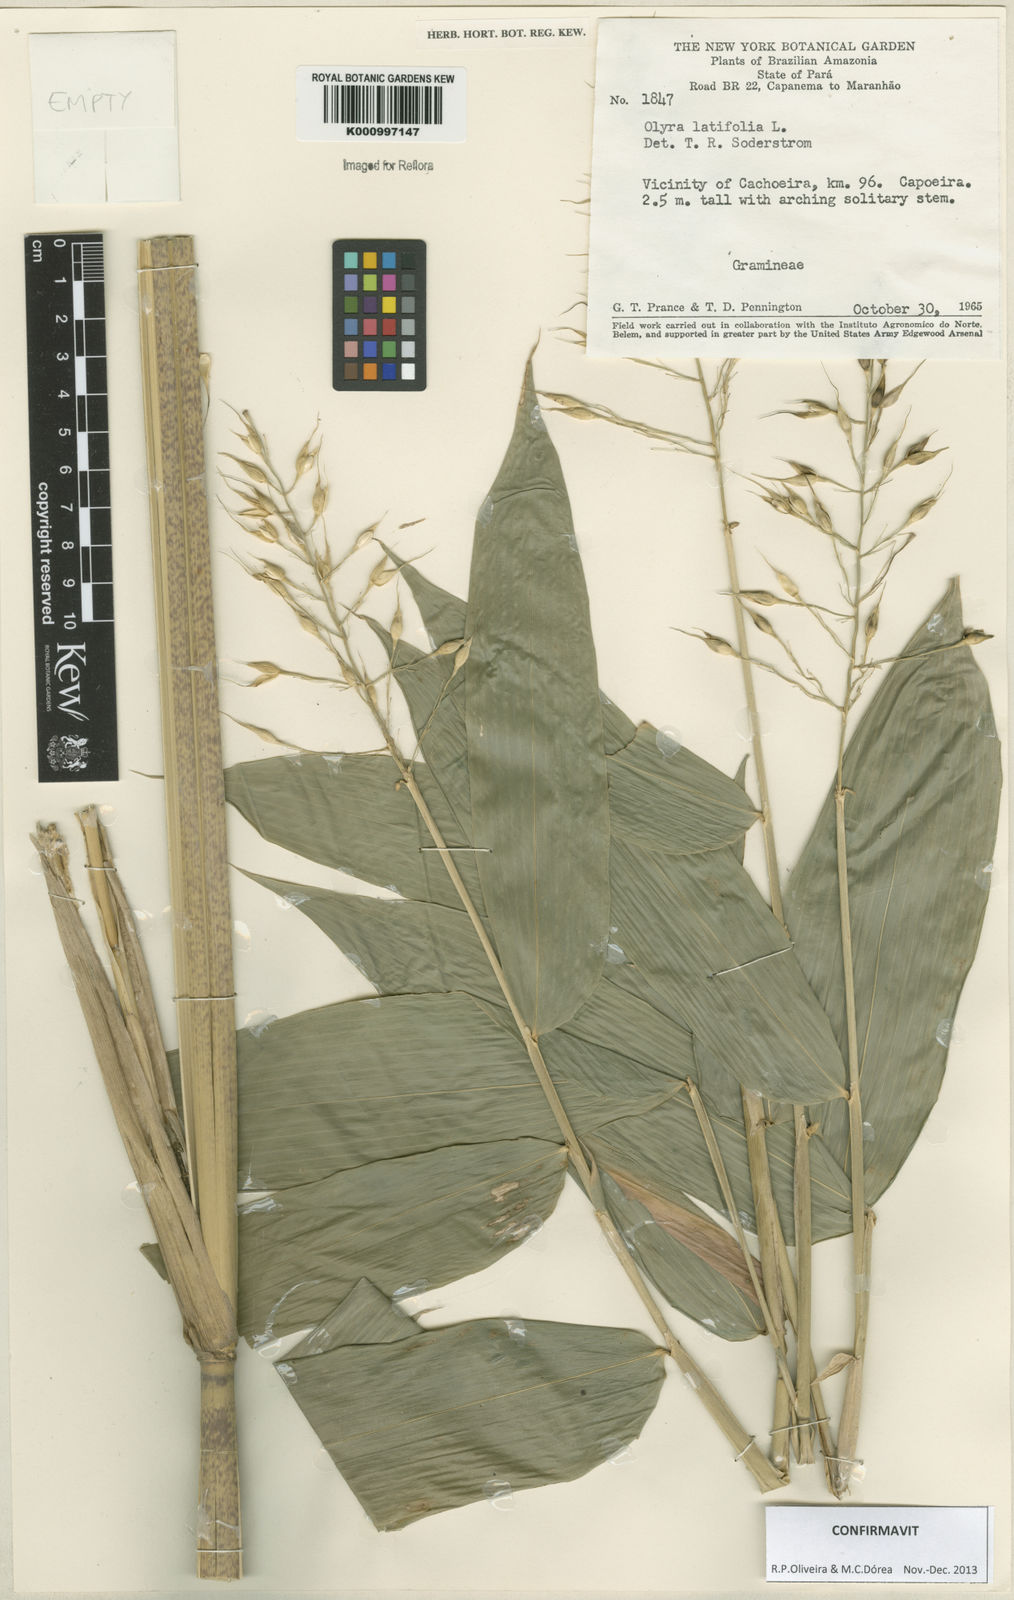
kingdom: Plantae
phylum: Tracheophyta
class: Liliopsida
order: Poales
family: Poaceae
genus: Olyra
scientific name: Olyra latifolia
